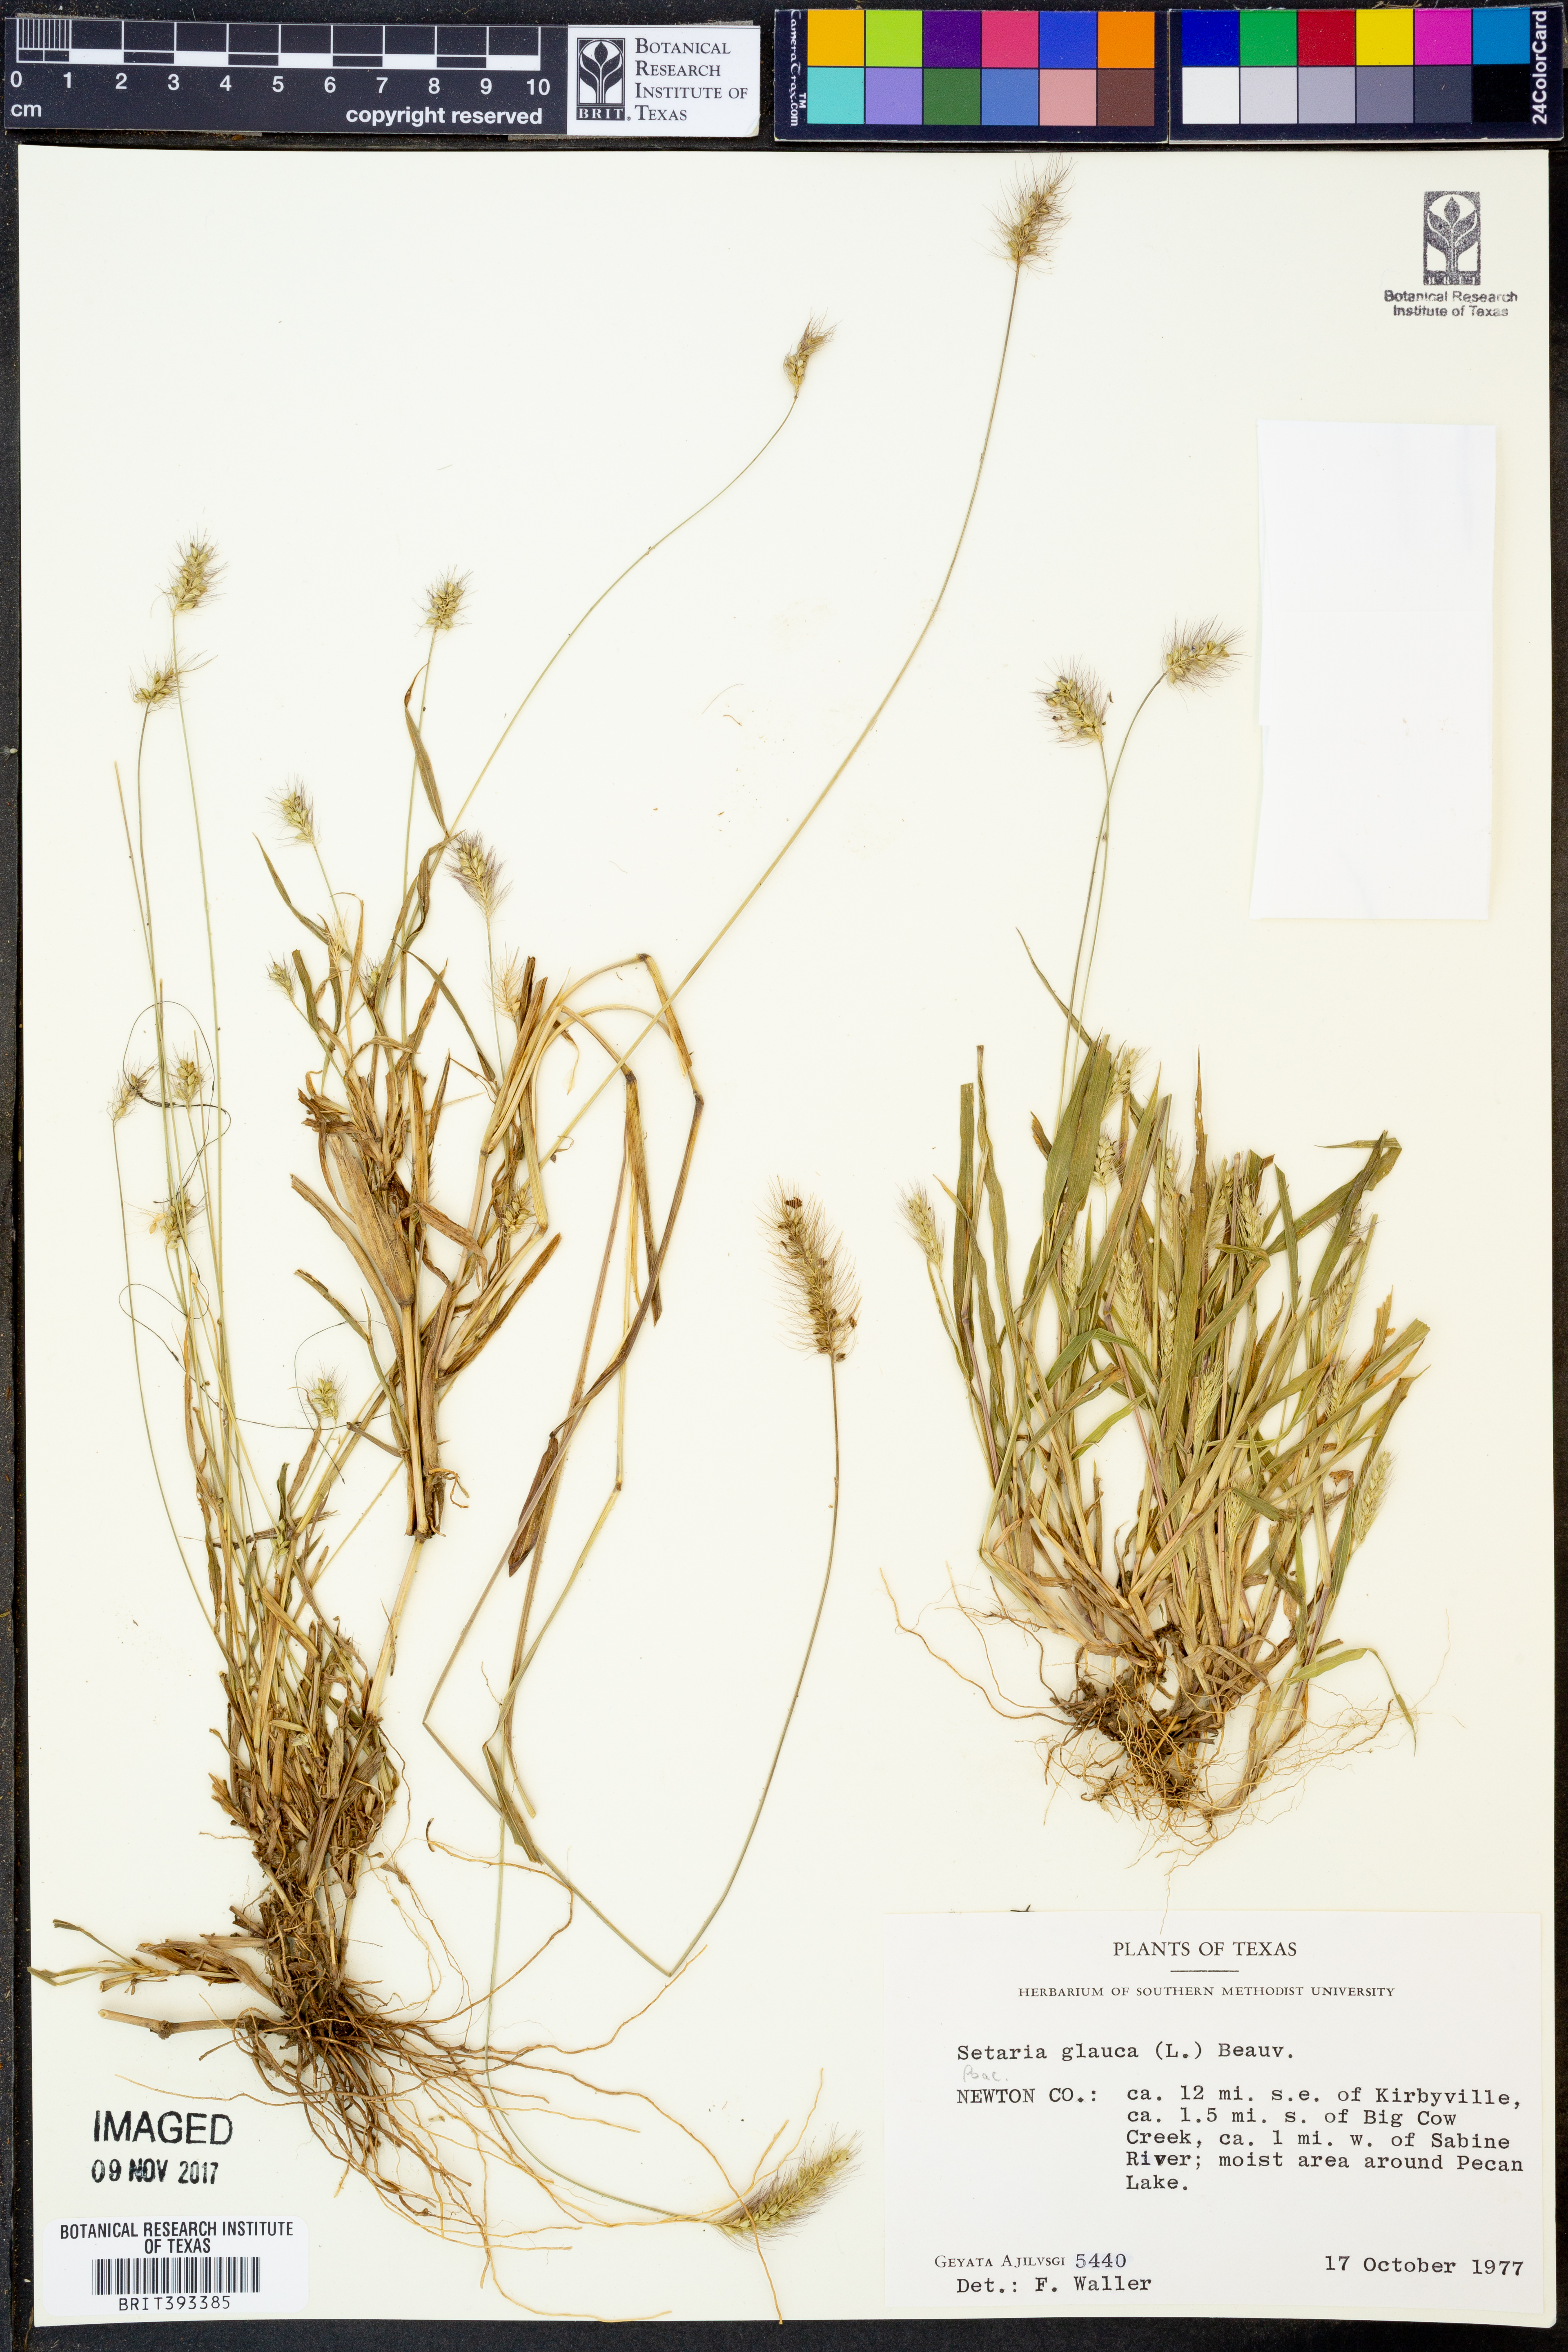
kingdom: Plantae
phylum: Tracheophyta
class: Liliopsida
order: Poales
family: Poaceae
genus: Cenchrus
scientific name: Cenchrus americanus
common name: Pearl millet
